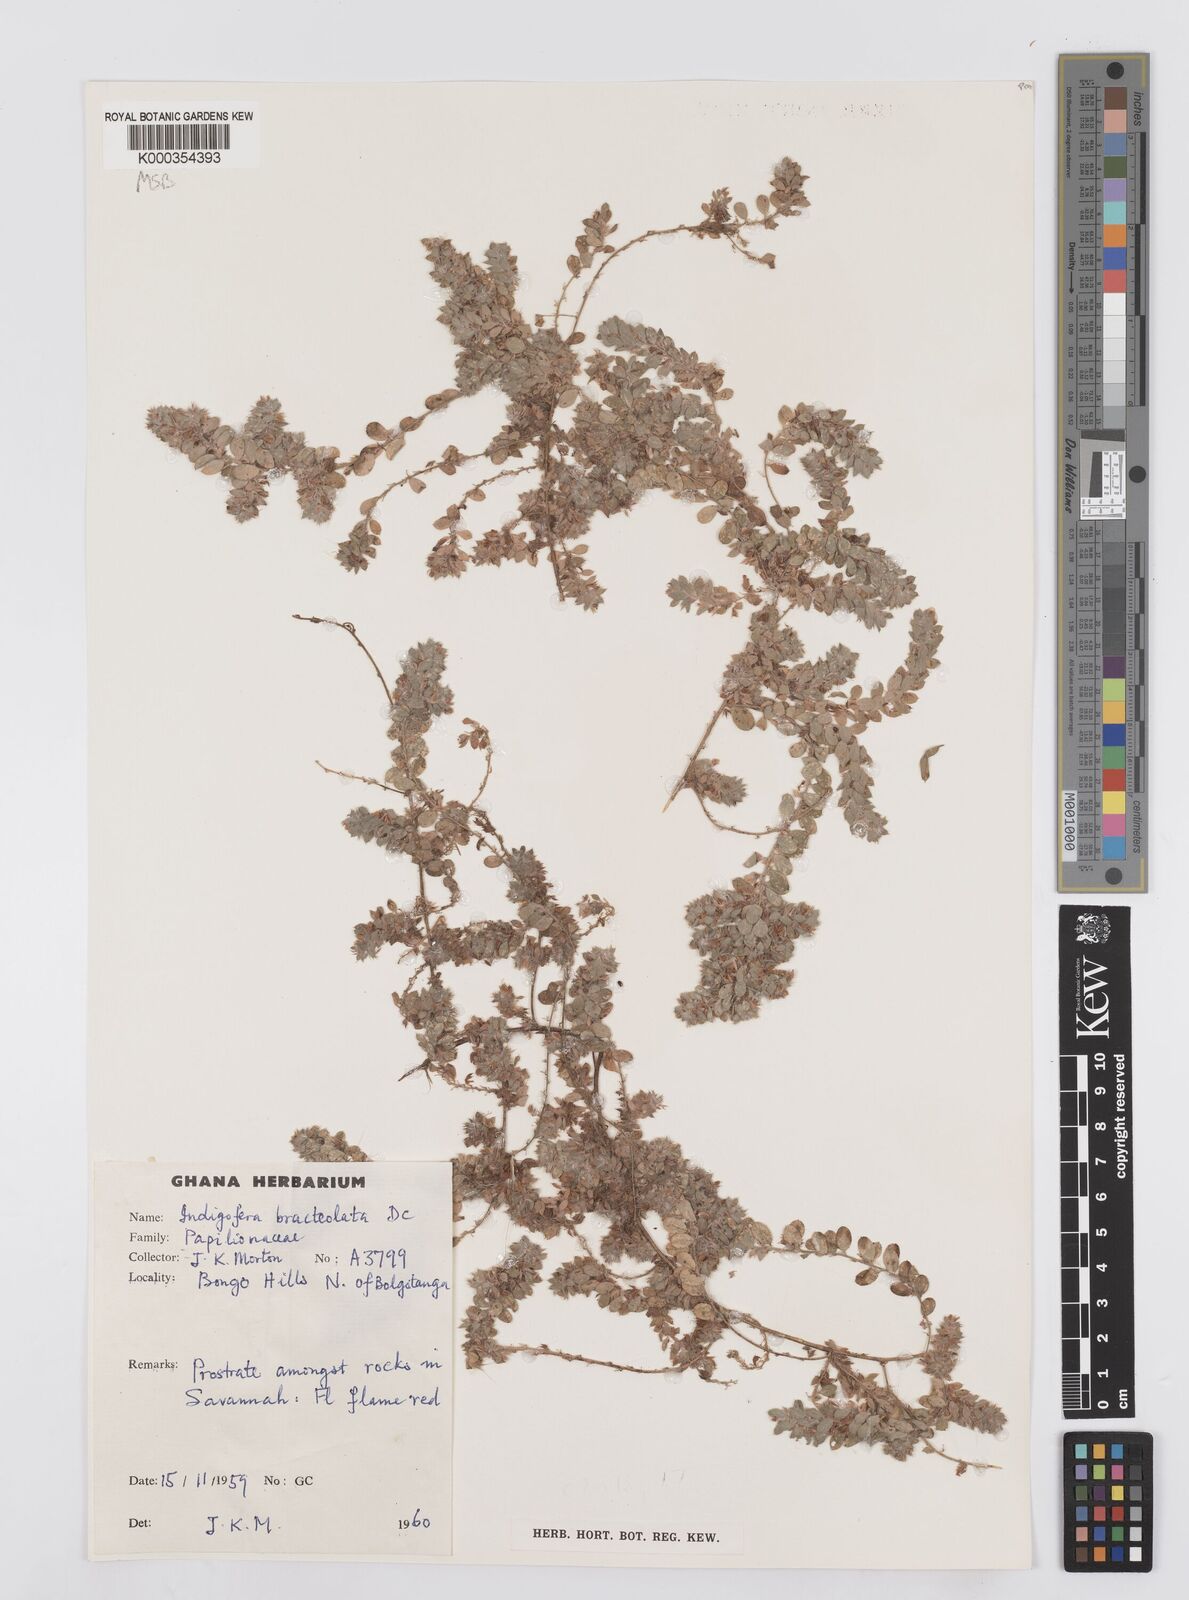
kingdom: Plantae
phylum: Tracheophyta
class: Magnoliopsida
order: Fabales
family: Fabaceae
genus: Indigofera
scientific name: Indigofera bracteolata
